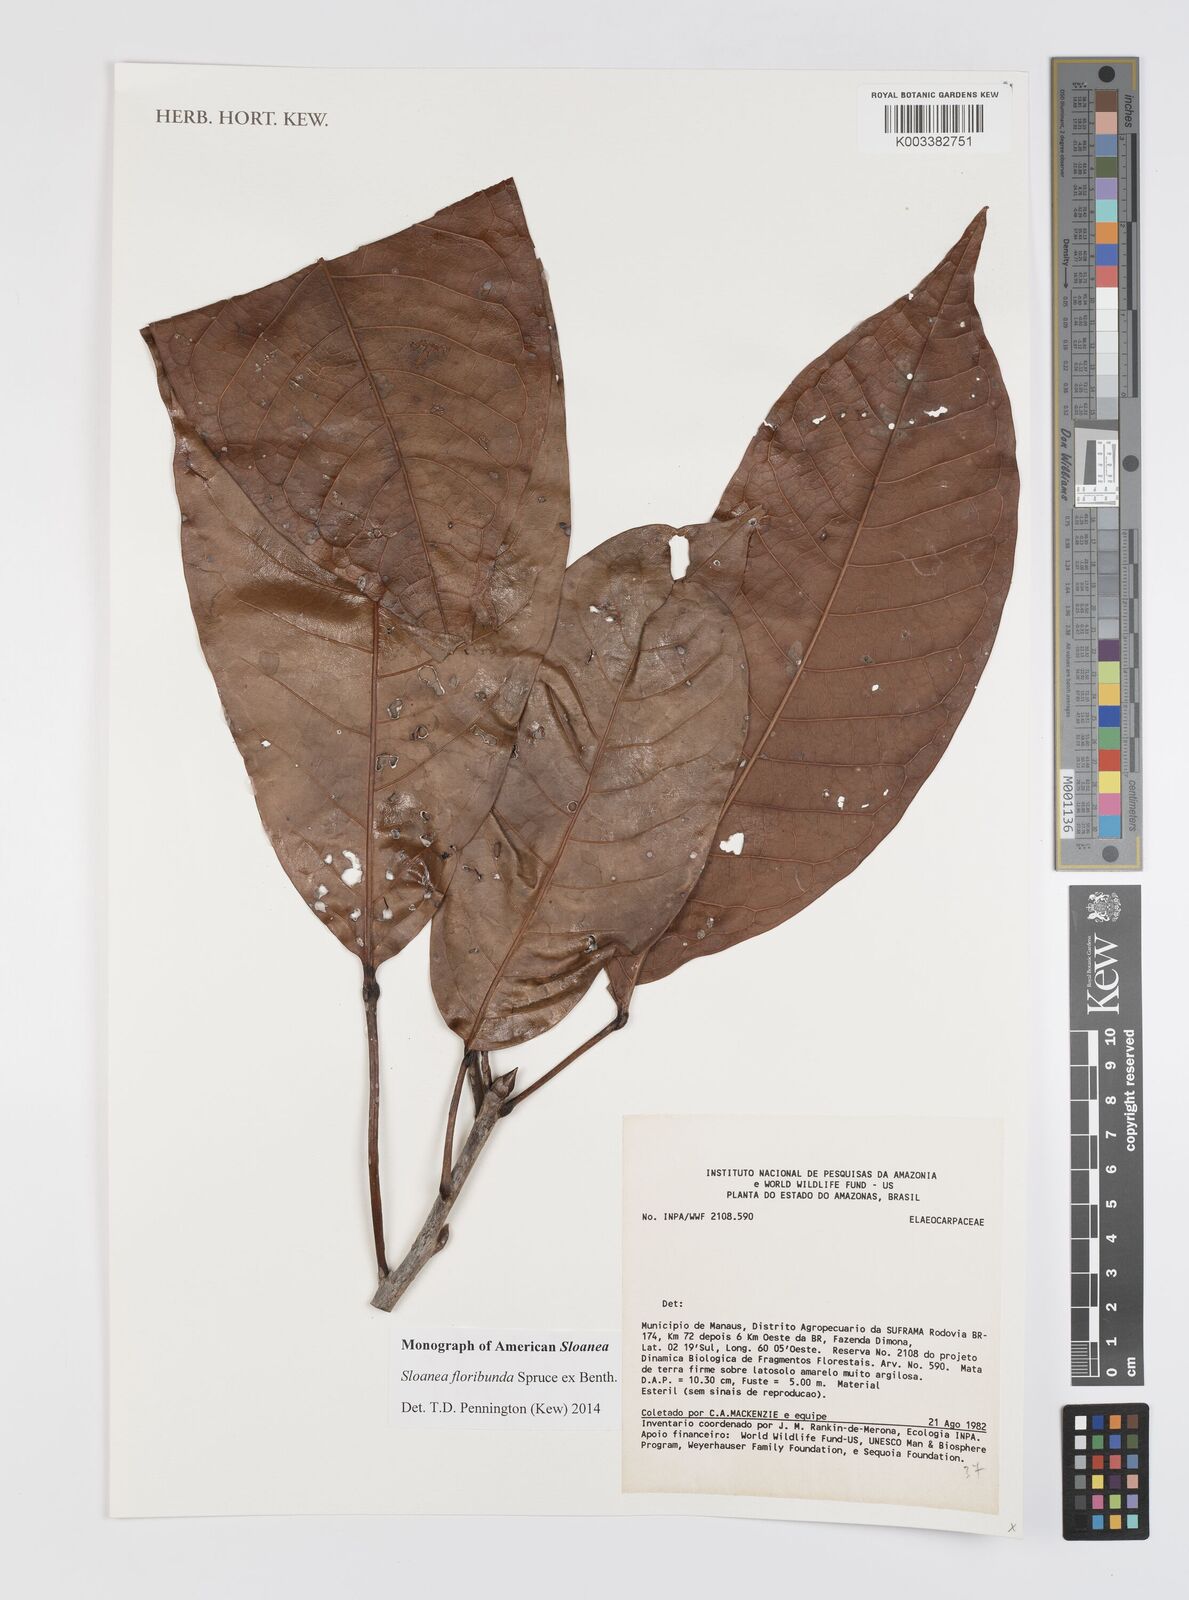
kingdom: Plantae
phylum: Tracheophyta
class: Magnoliopsida
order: Oxalidales
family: Elaeocarpaceae
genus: Sloanea
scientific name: Sloanea floribunda
